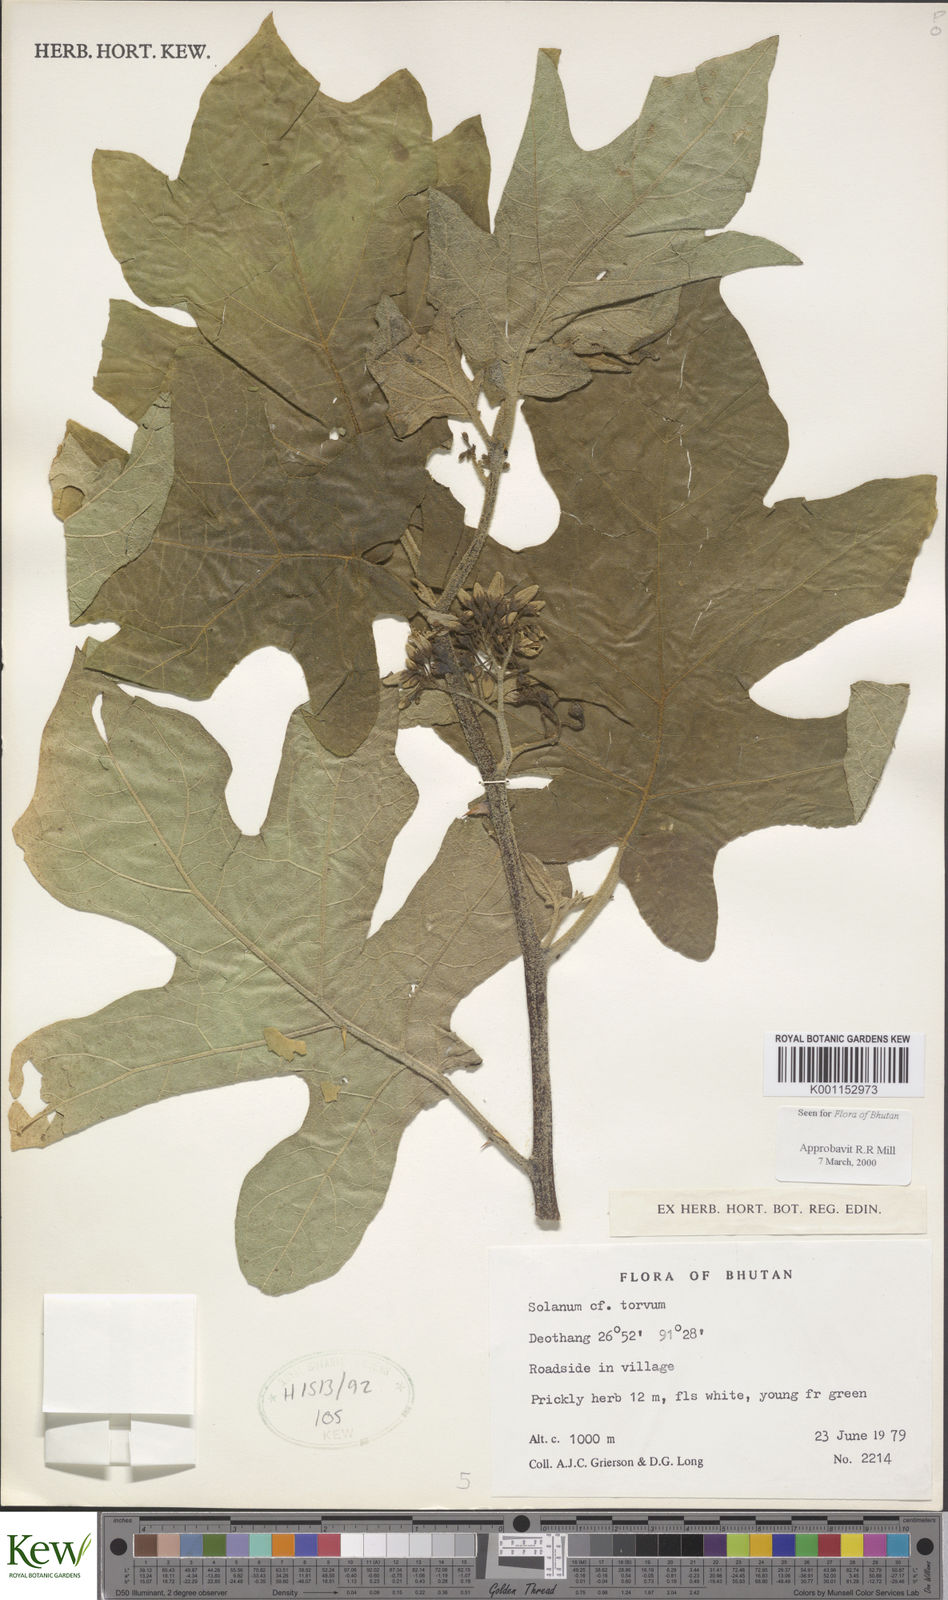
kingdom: Plantae
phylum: Tracheophyta
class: Magnoliopsida
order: Solanales
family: Solanaceae
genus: Solanum
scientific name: Solanum torvum
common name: Turkey berry
